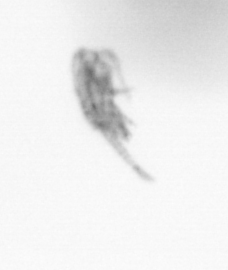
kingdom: Animalia
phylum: Arthropoda
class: Copepoda
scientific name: Copepoda
